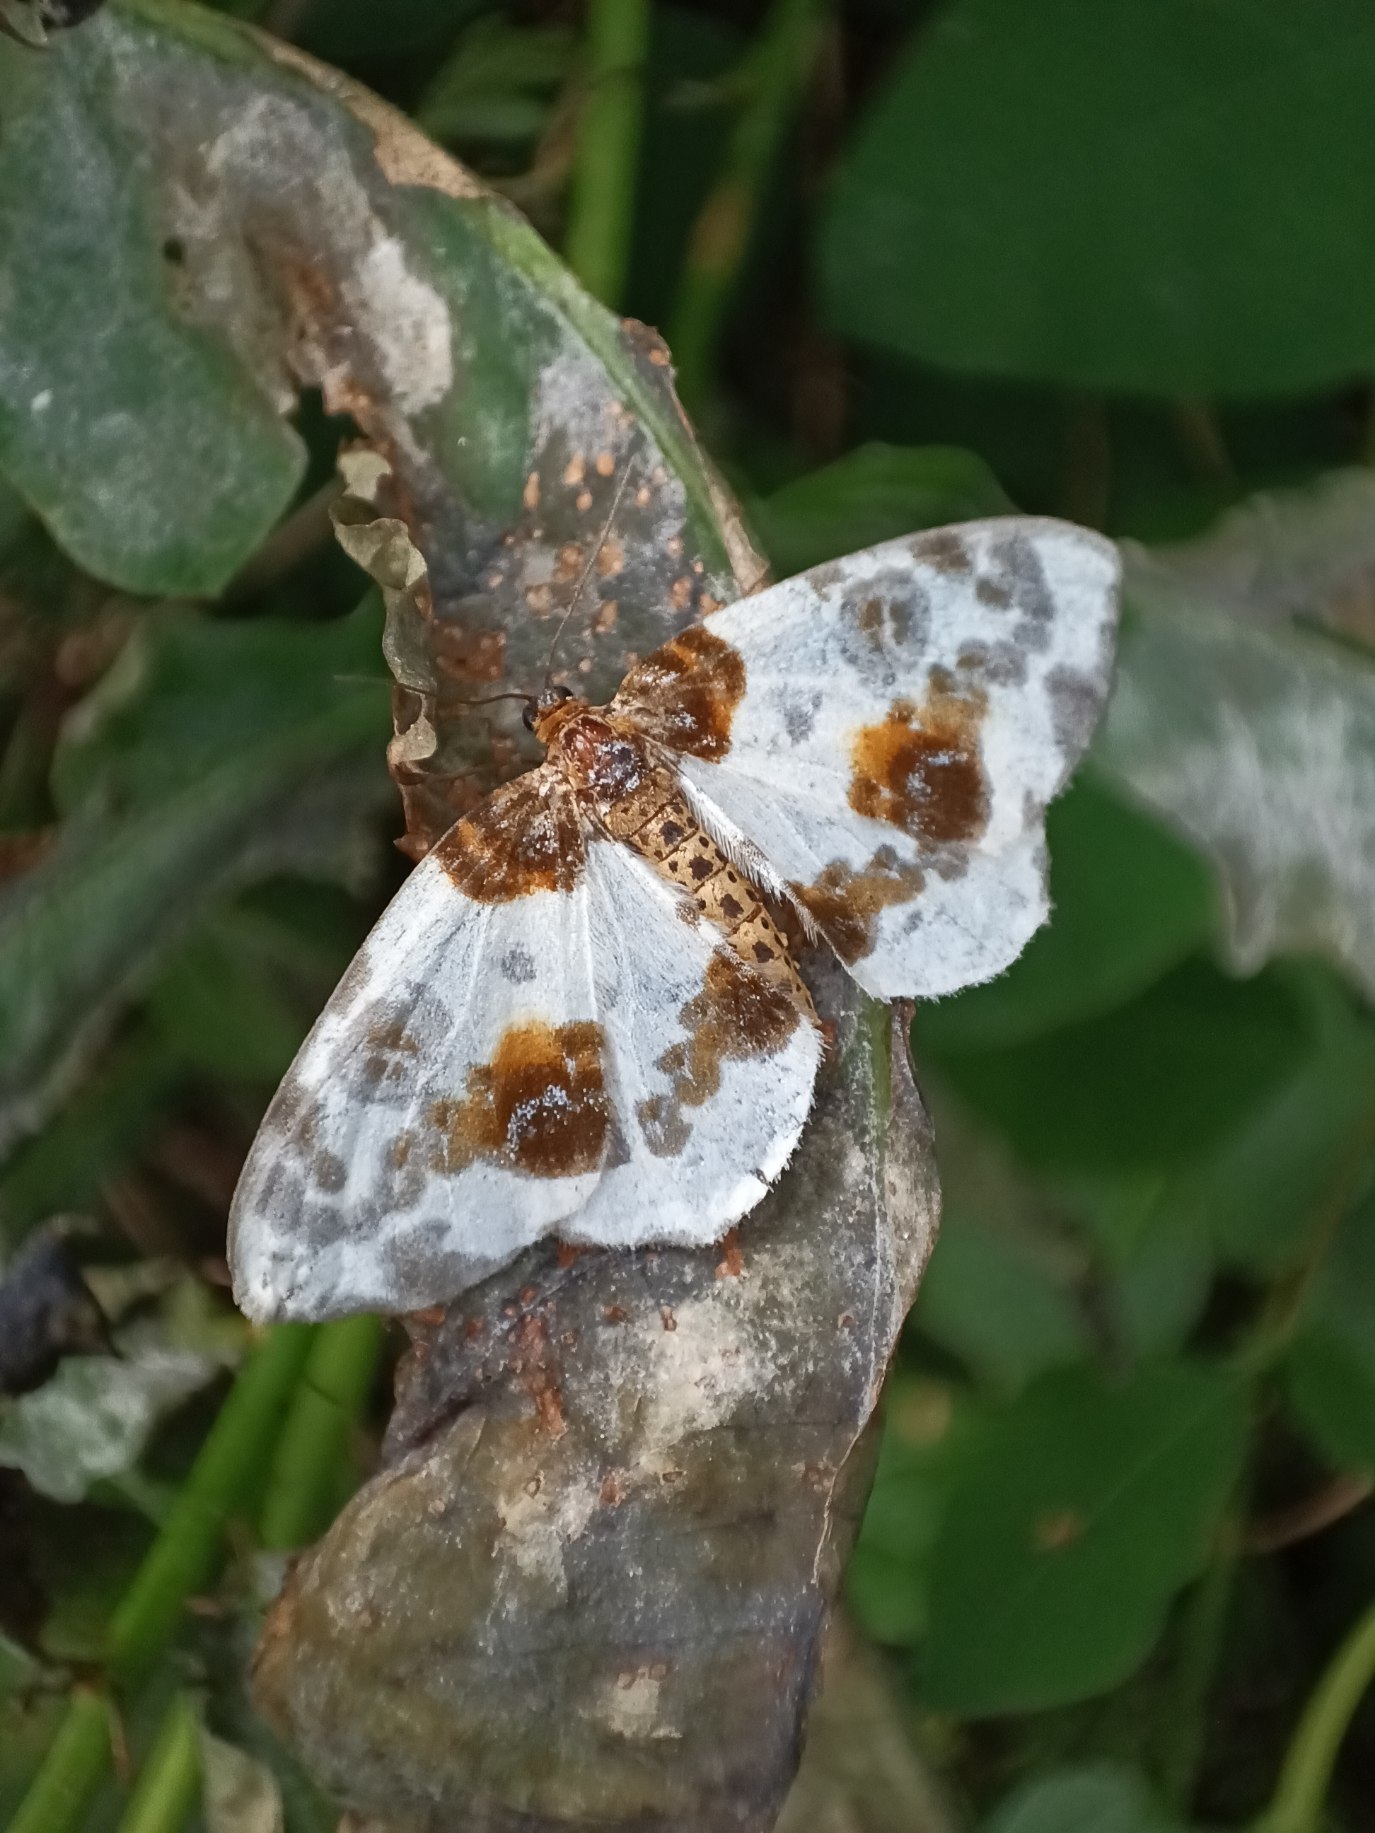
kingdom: Animalia
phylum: Arthropoda
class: Insecta
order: Lepidoptera
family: Geometridae
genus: Abraxas
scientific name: Abraxas sylvata
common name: Elmemåler
